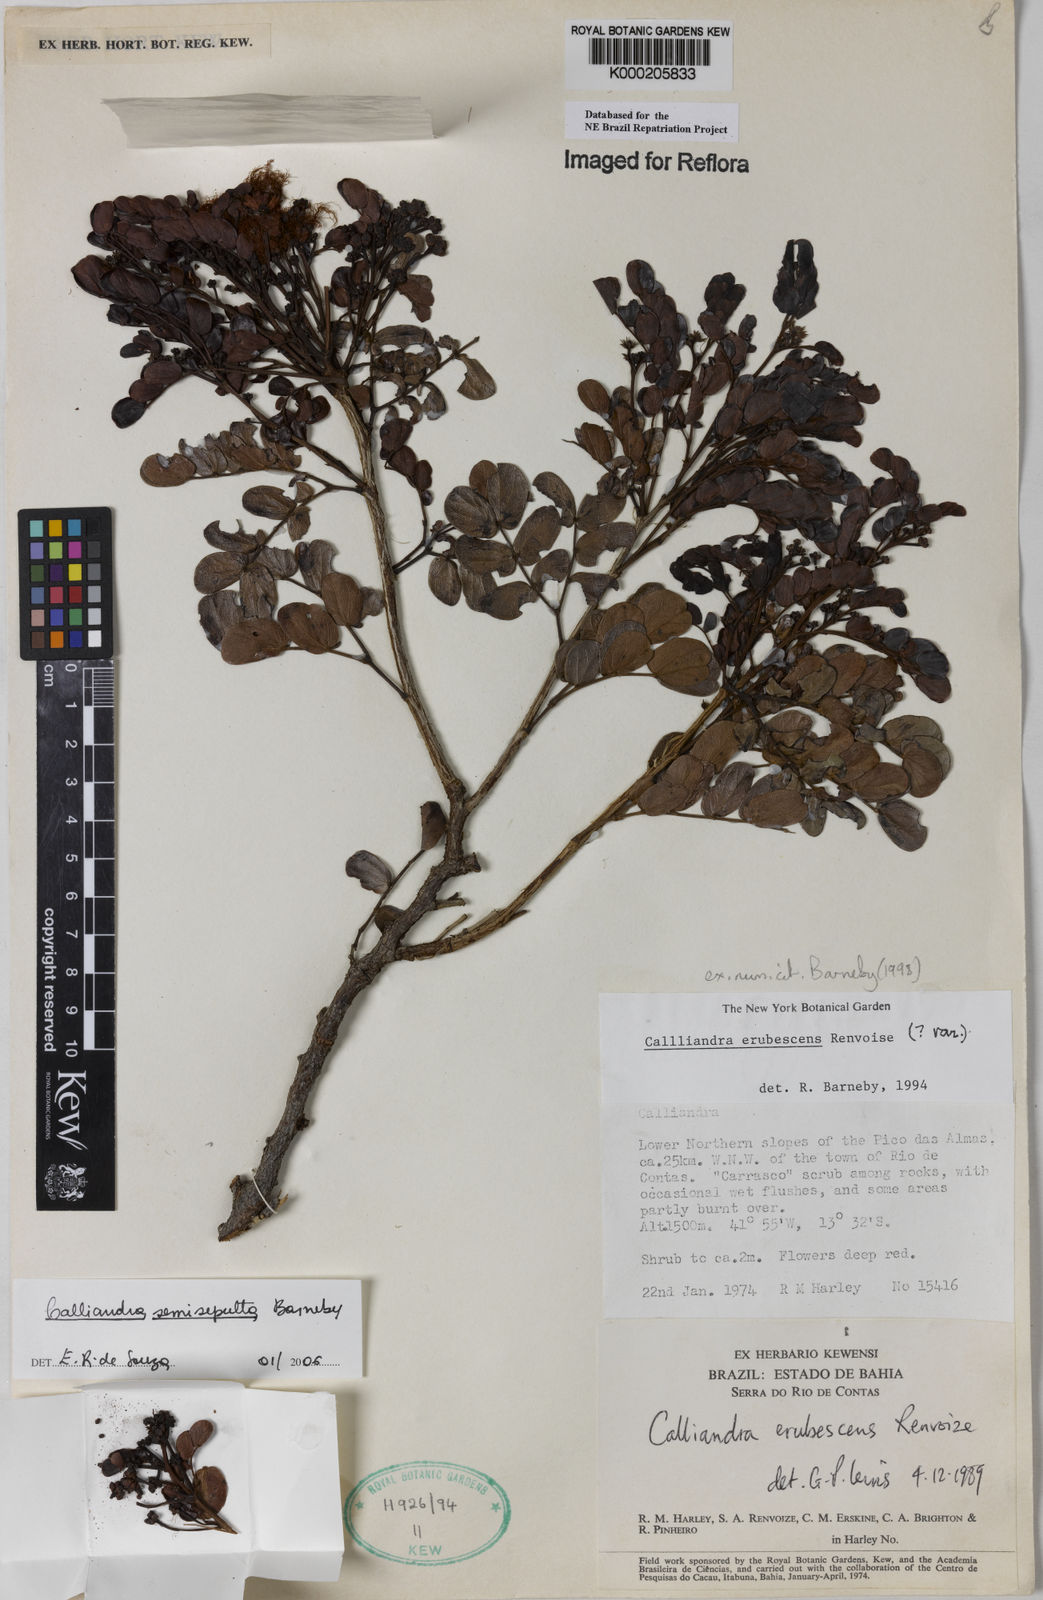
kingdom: Plantae
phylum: Tracheophyta
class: Magnoliopsida
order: Fabales
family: Fabaceae
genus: Calliandra
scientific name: Calliandra erubescens
